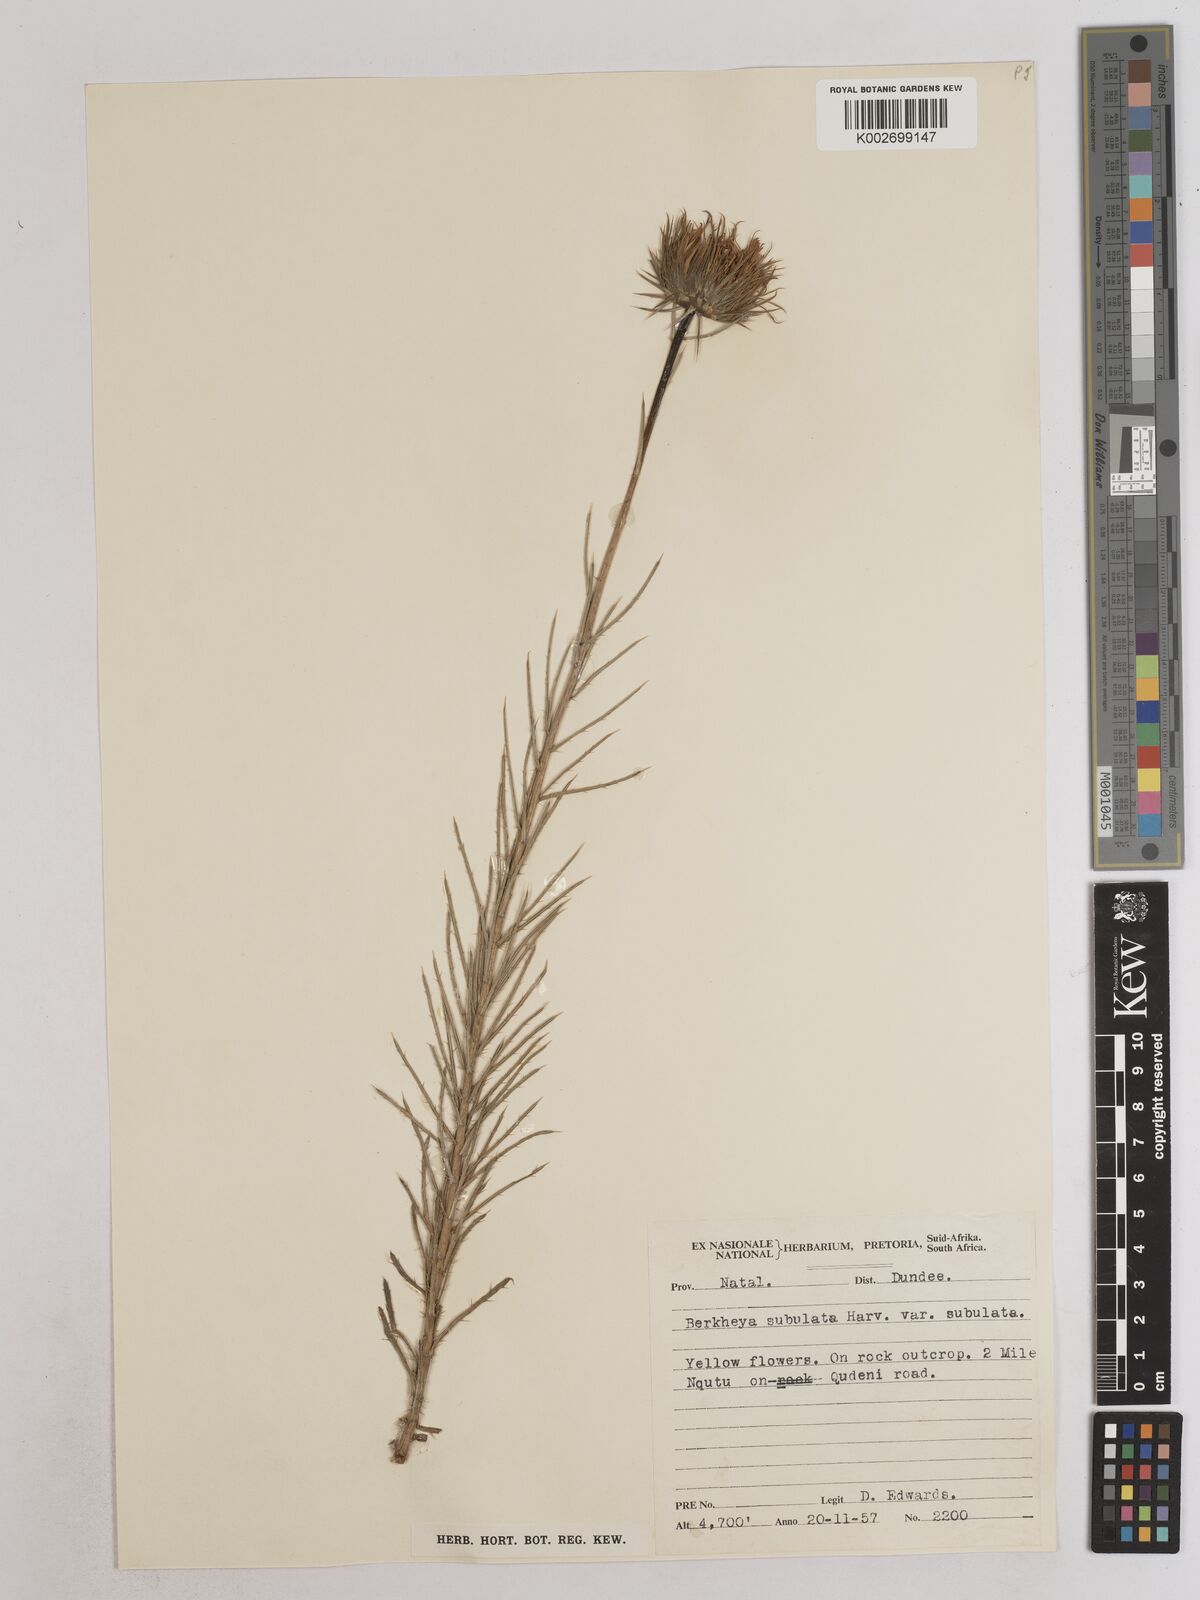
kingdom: Plantae
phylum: Tracheophyta
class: Magnoliopsida
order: Asterales
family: Asteraceae
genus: Berkheya
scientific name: Berkheya subulata
